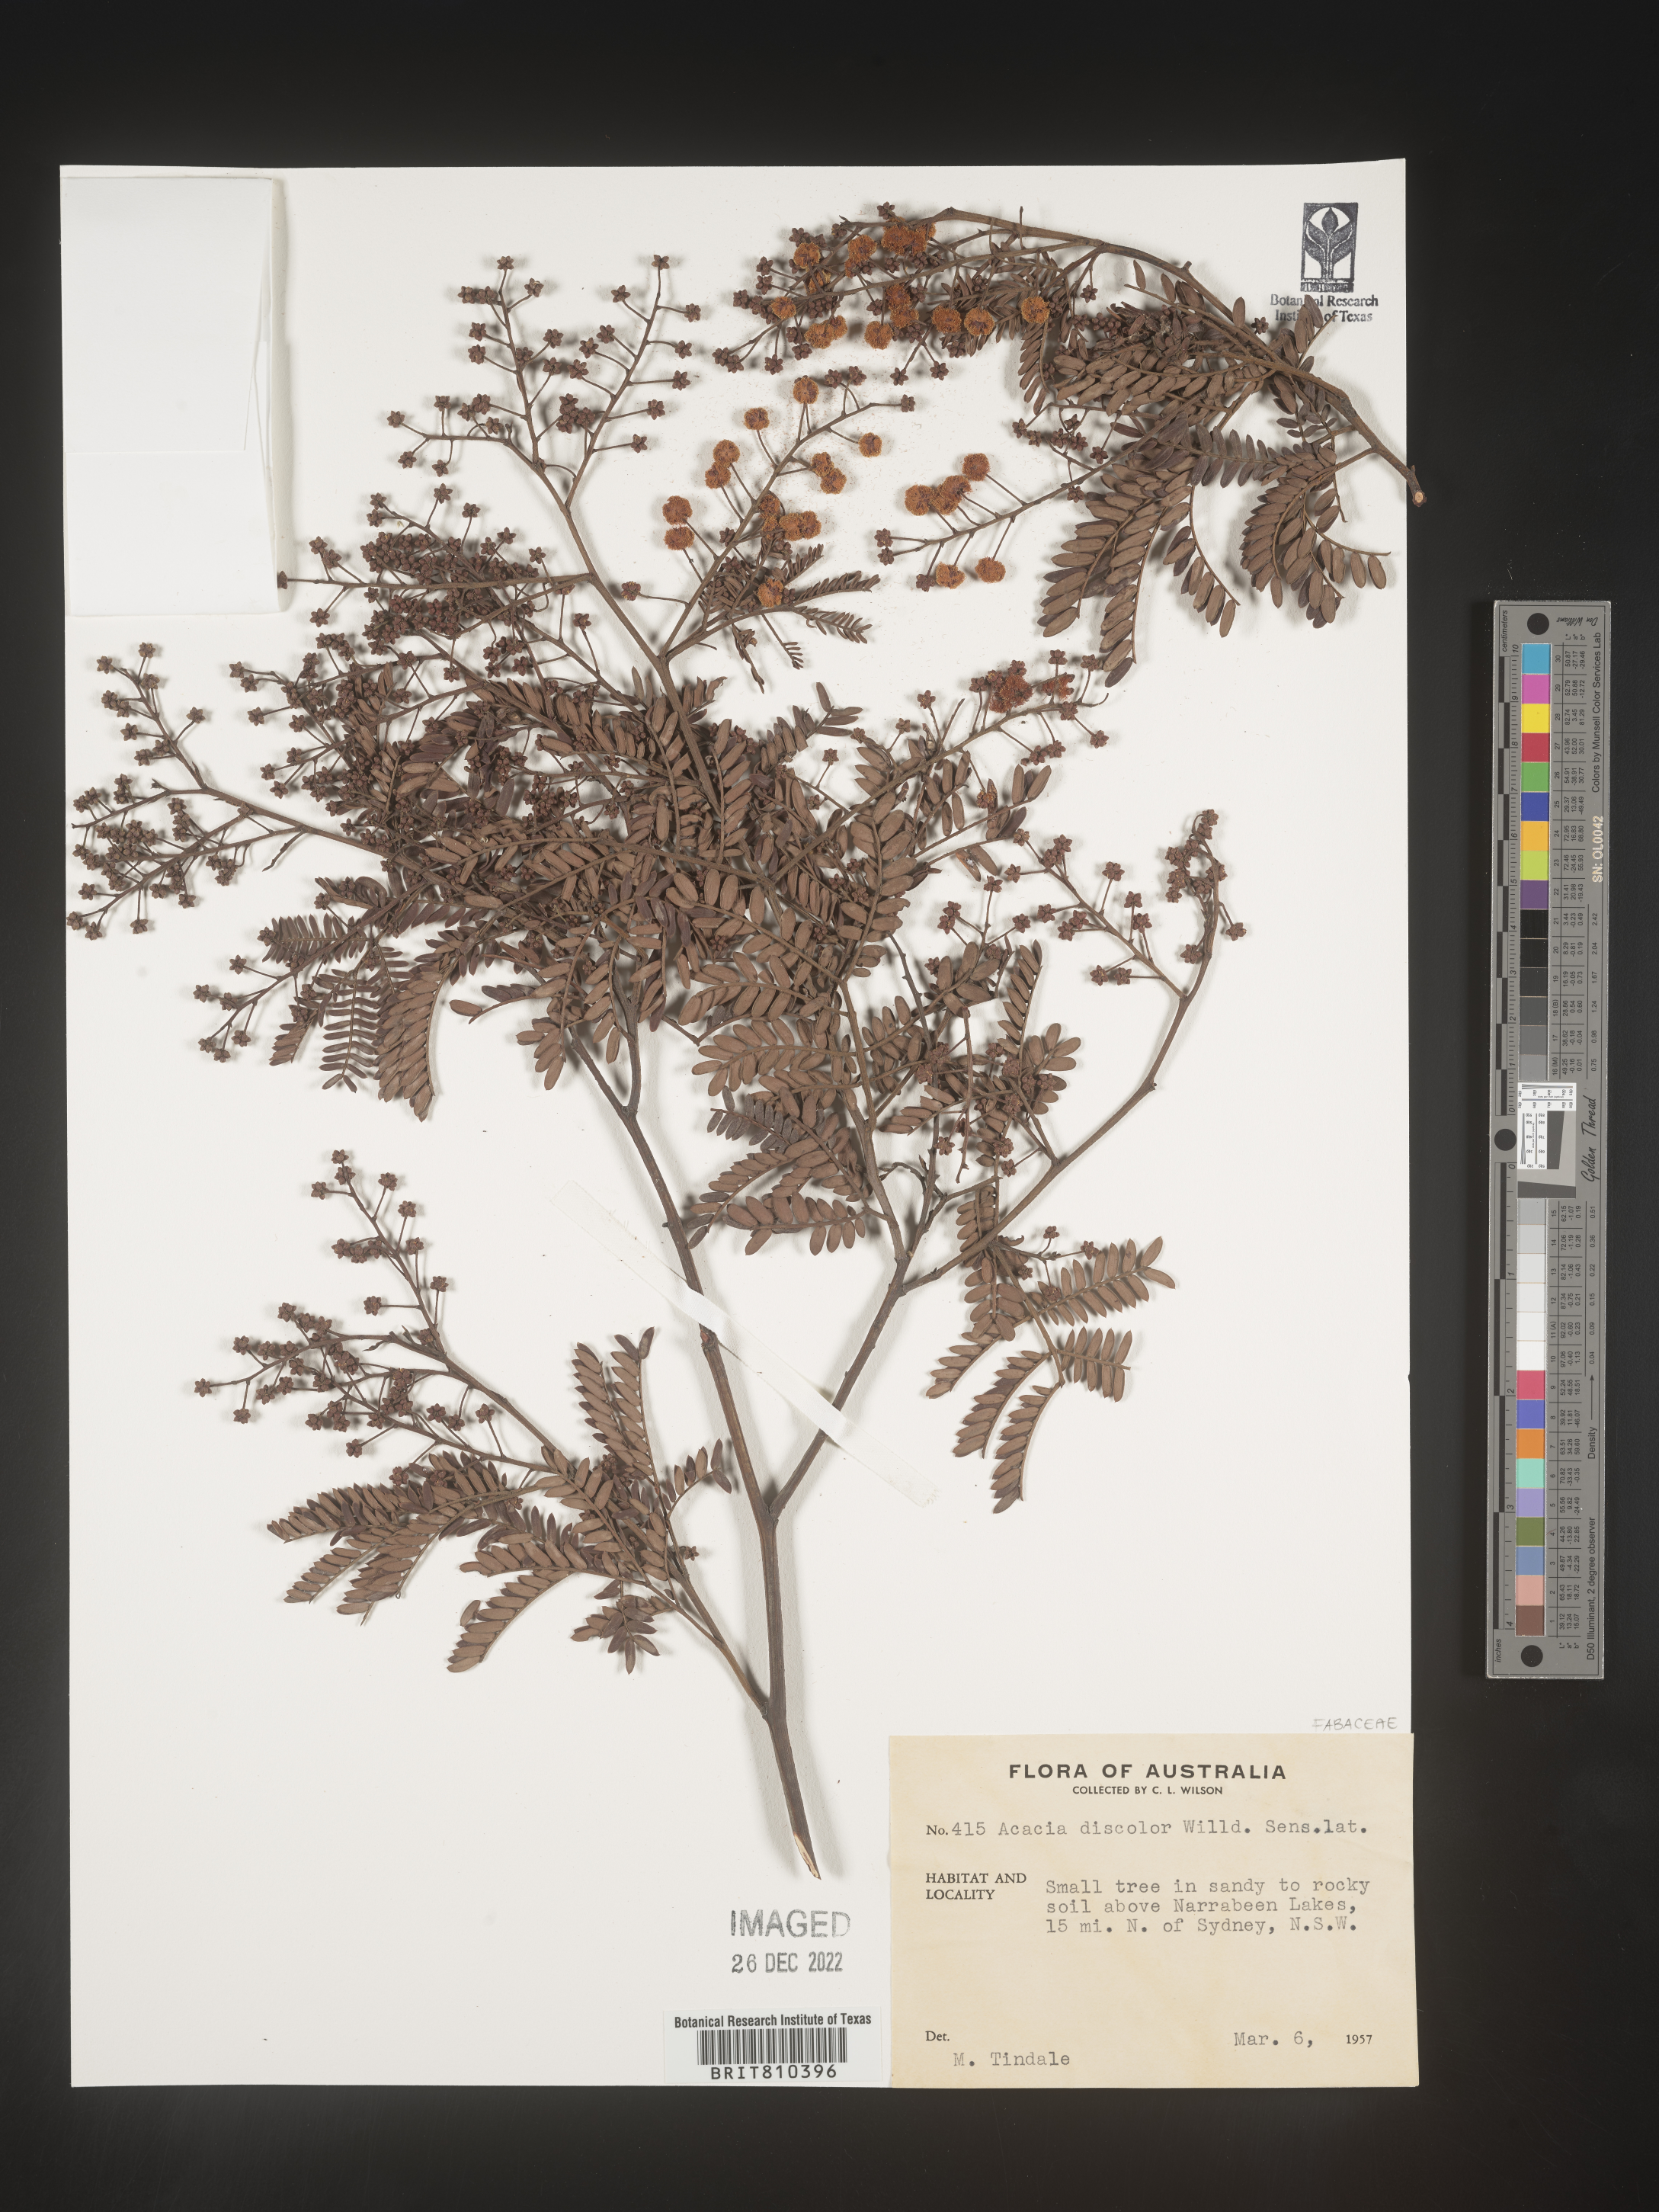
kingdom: Plantae
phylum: Tracheophyta
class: Magnoliopsida
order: Fabales
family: Fabaceae
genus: Acacia
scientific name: Acacia
